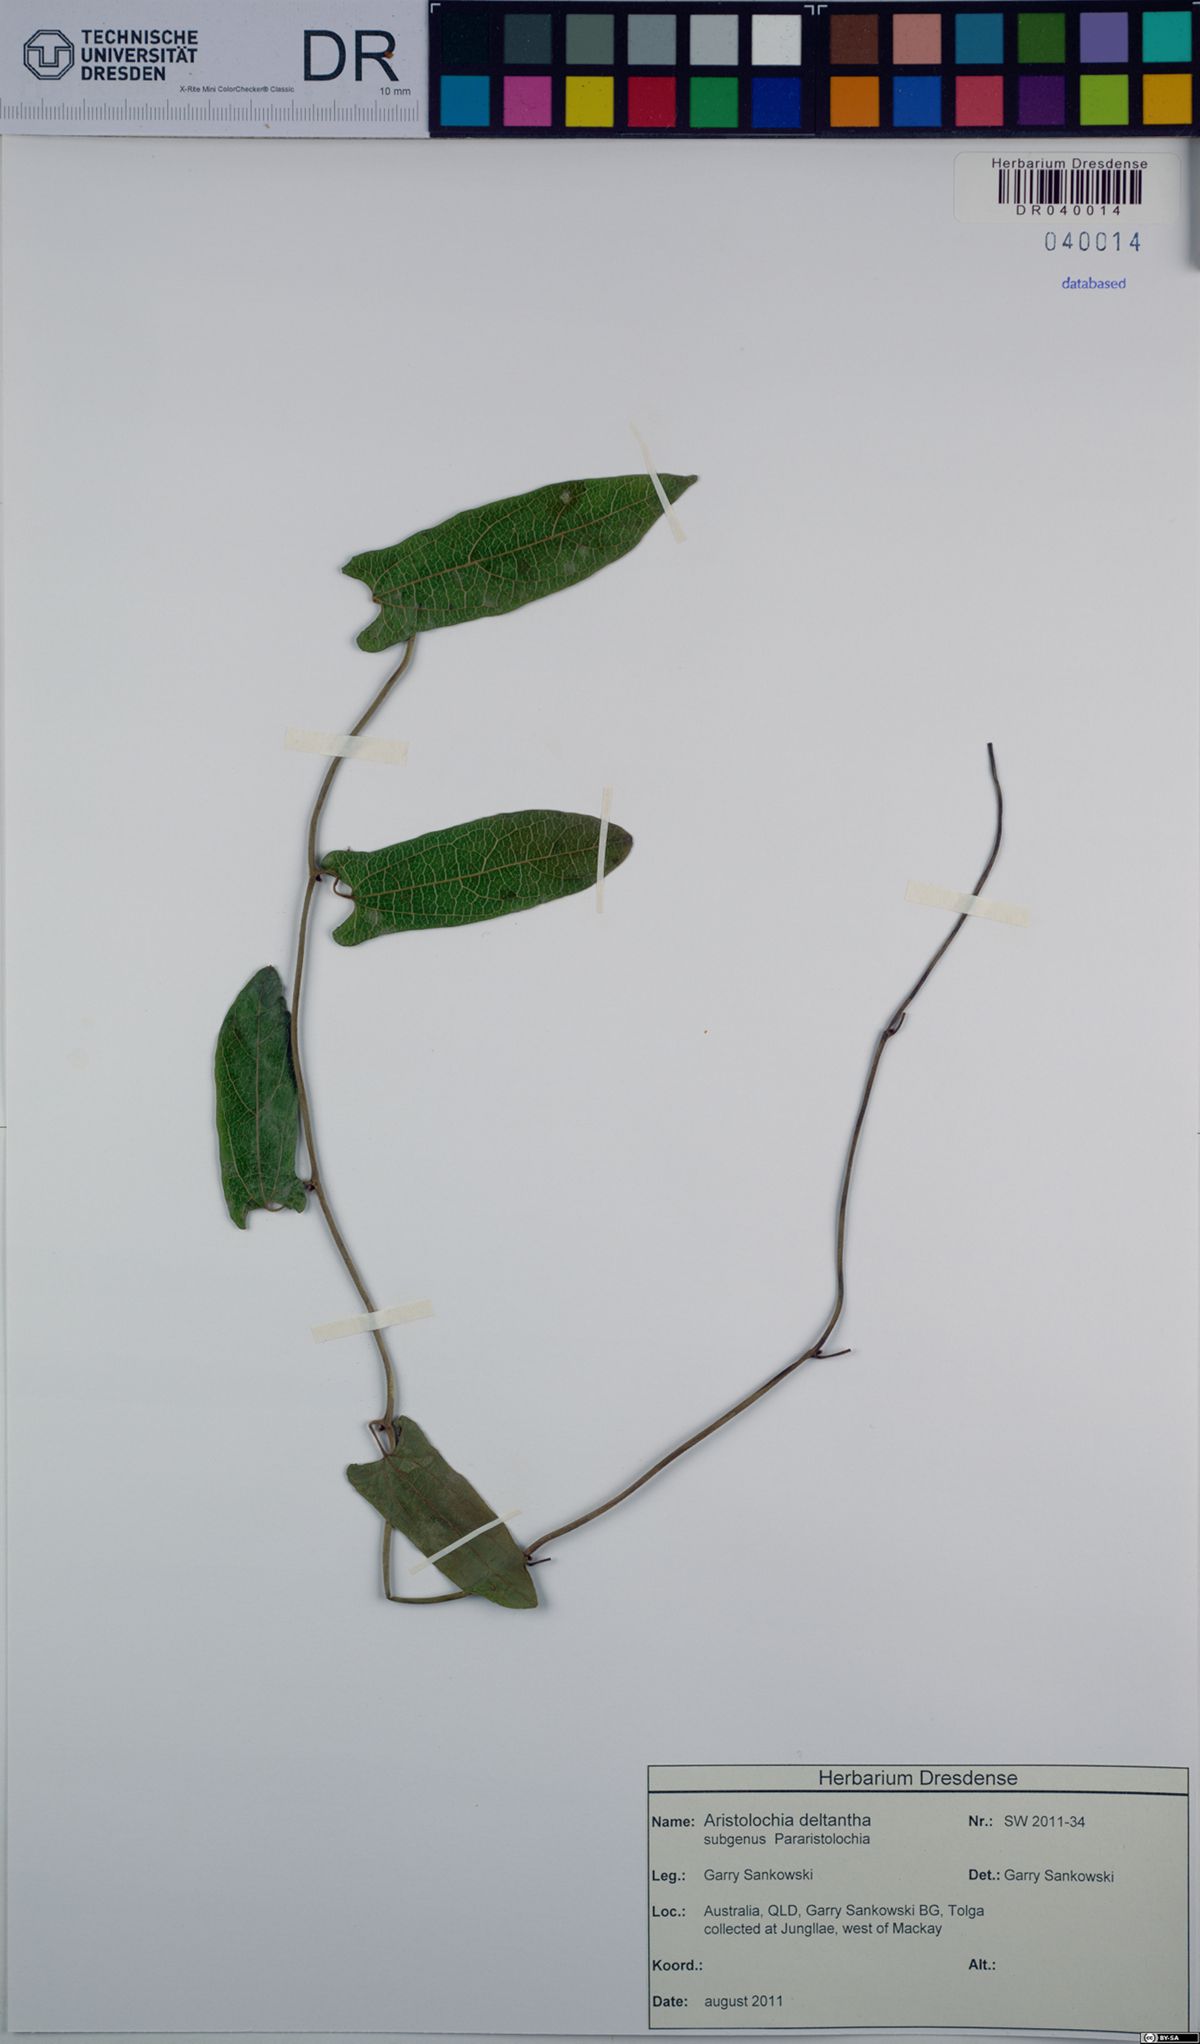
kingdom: Plantae
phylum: Tracheophyta
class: Magnoliopsida
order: Piperales
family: Aristolochiaceae
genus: Aristolochia
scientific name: Aristolochia deltantha
